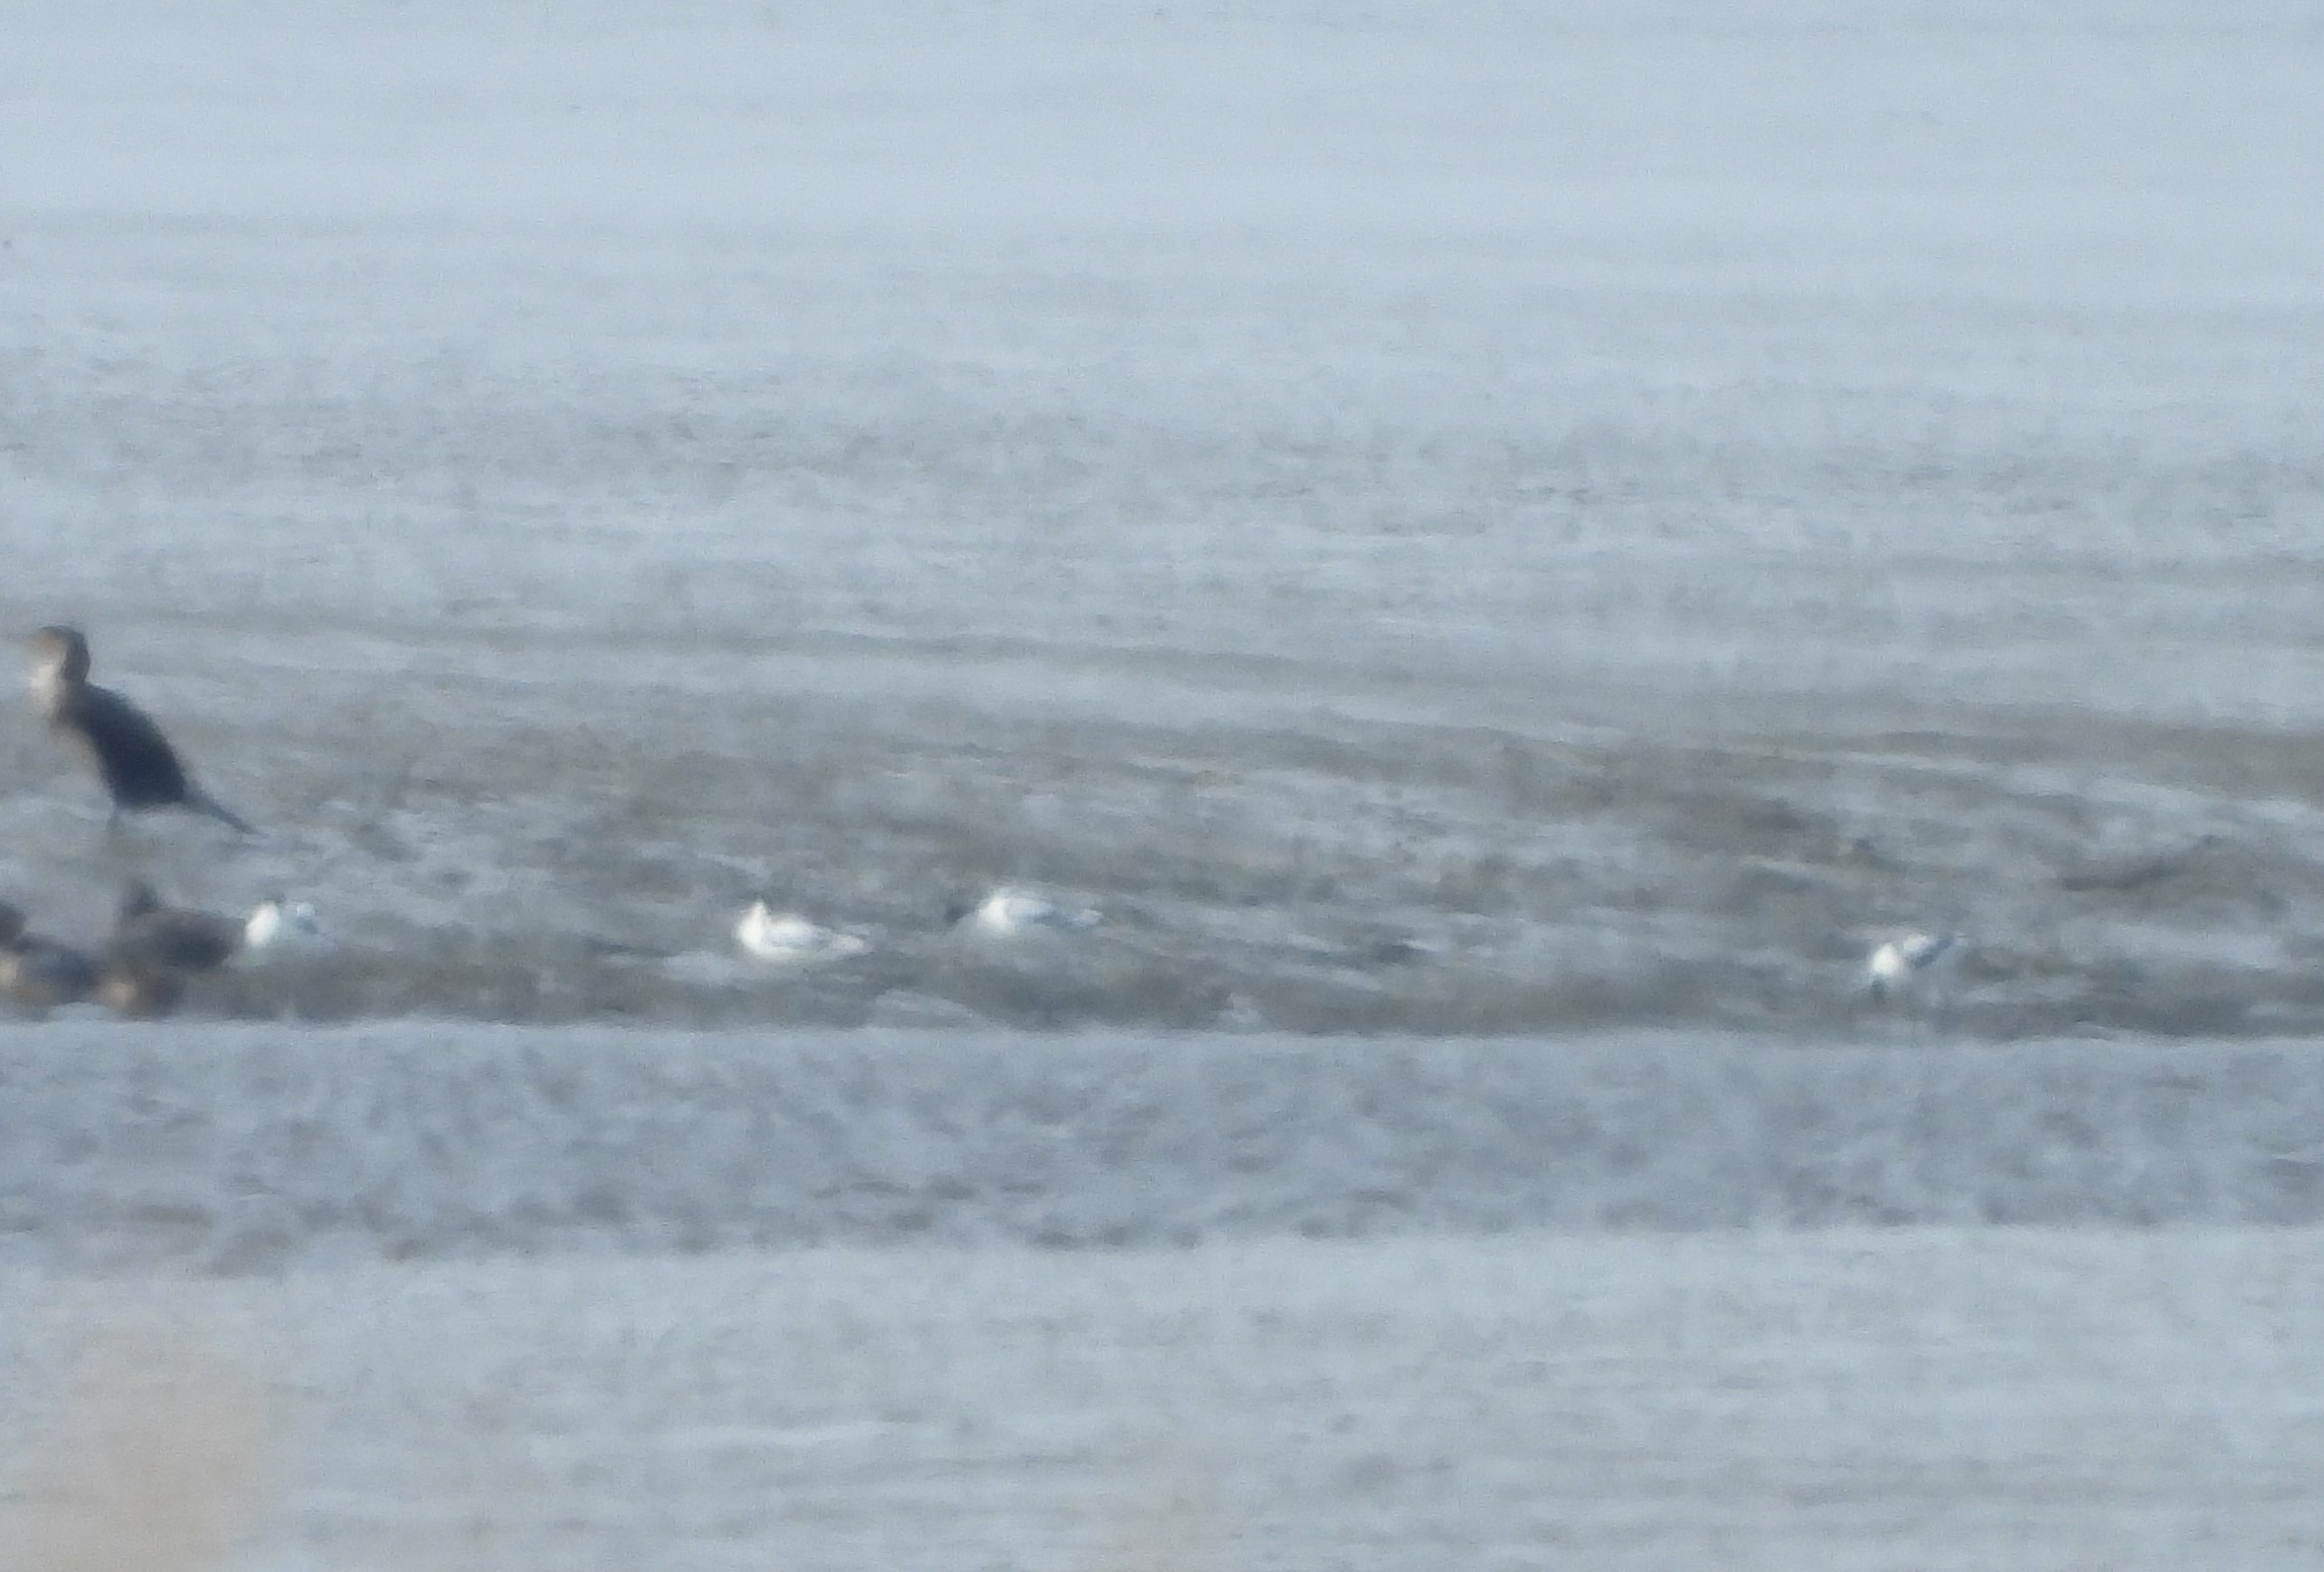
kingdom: Animalia
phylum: Chordata
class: Aves
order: Charadriiformes
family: Recurvirostridae
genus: Recurvirostra
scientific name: Recurvirostra avosetta
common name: Klyde
